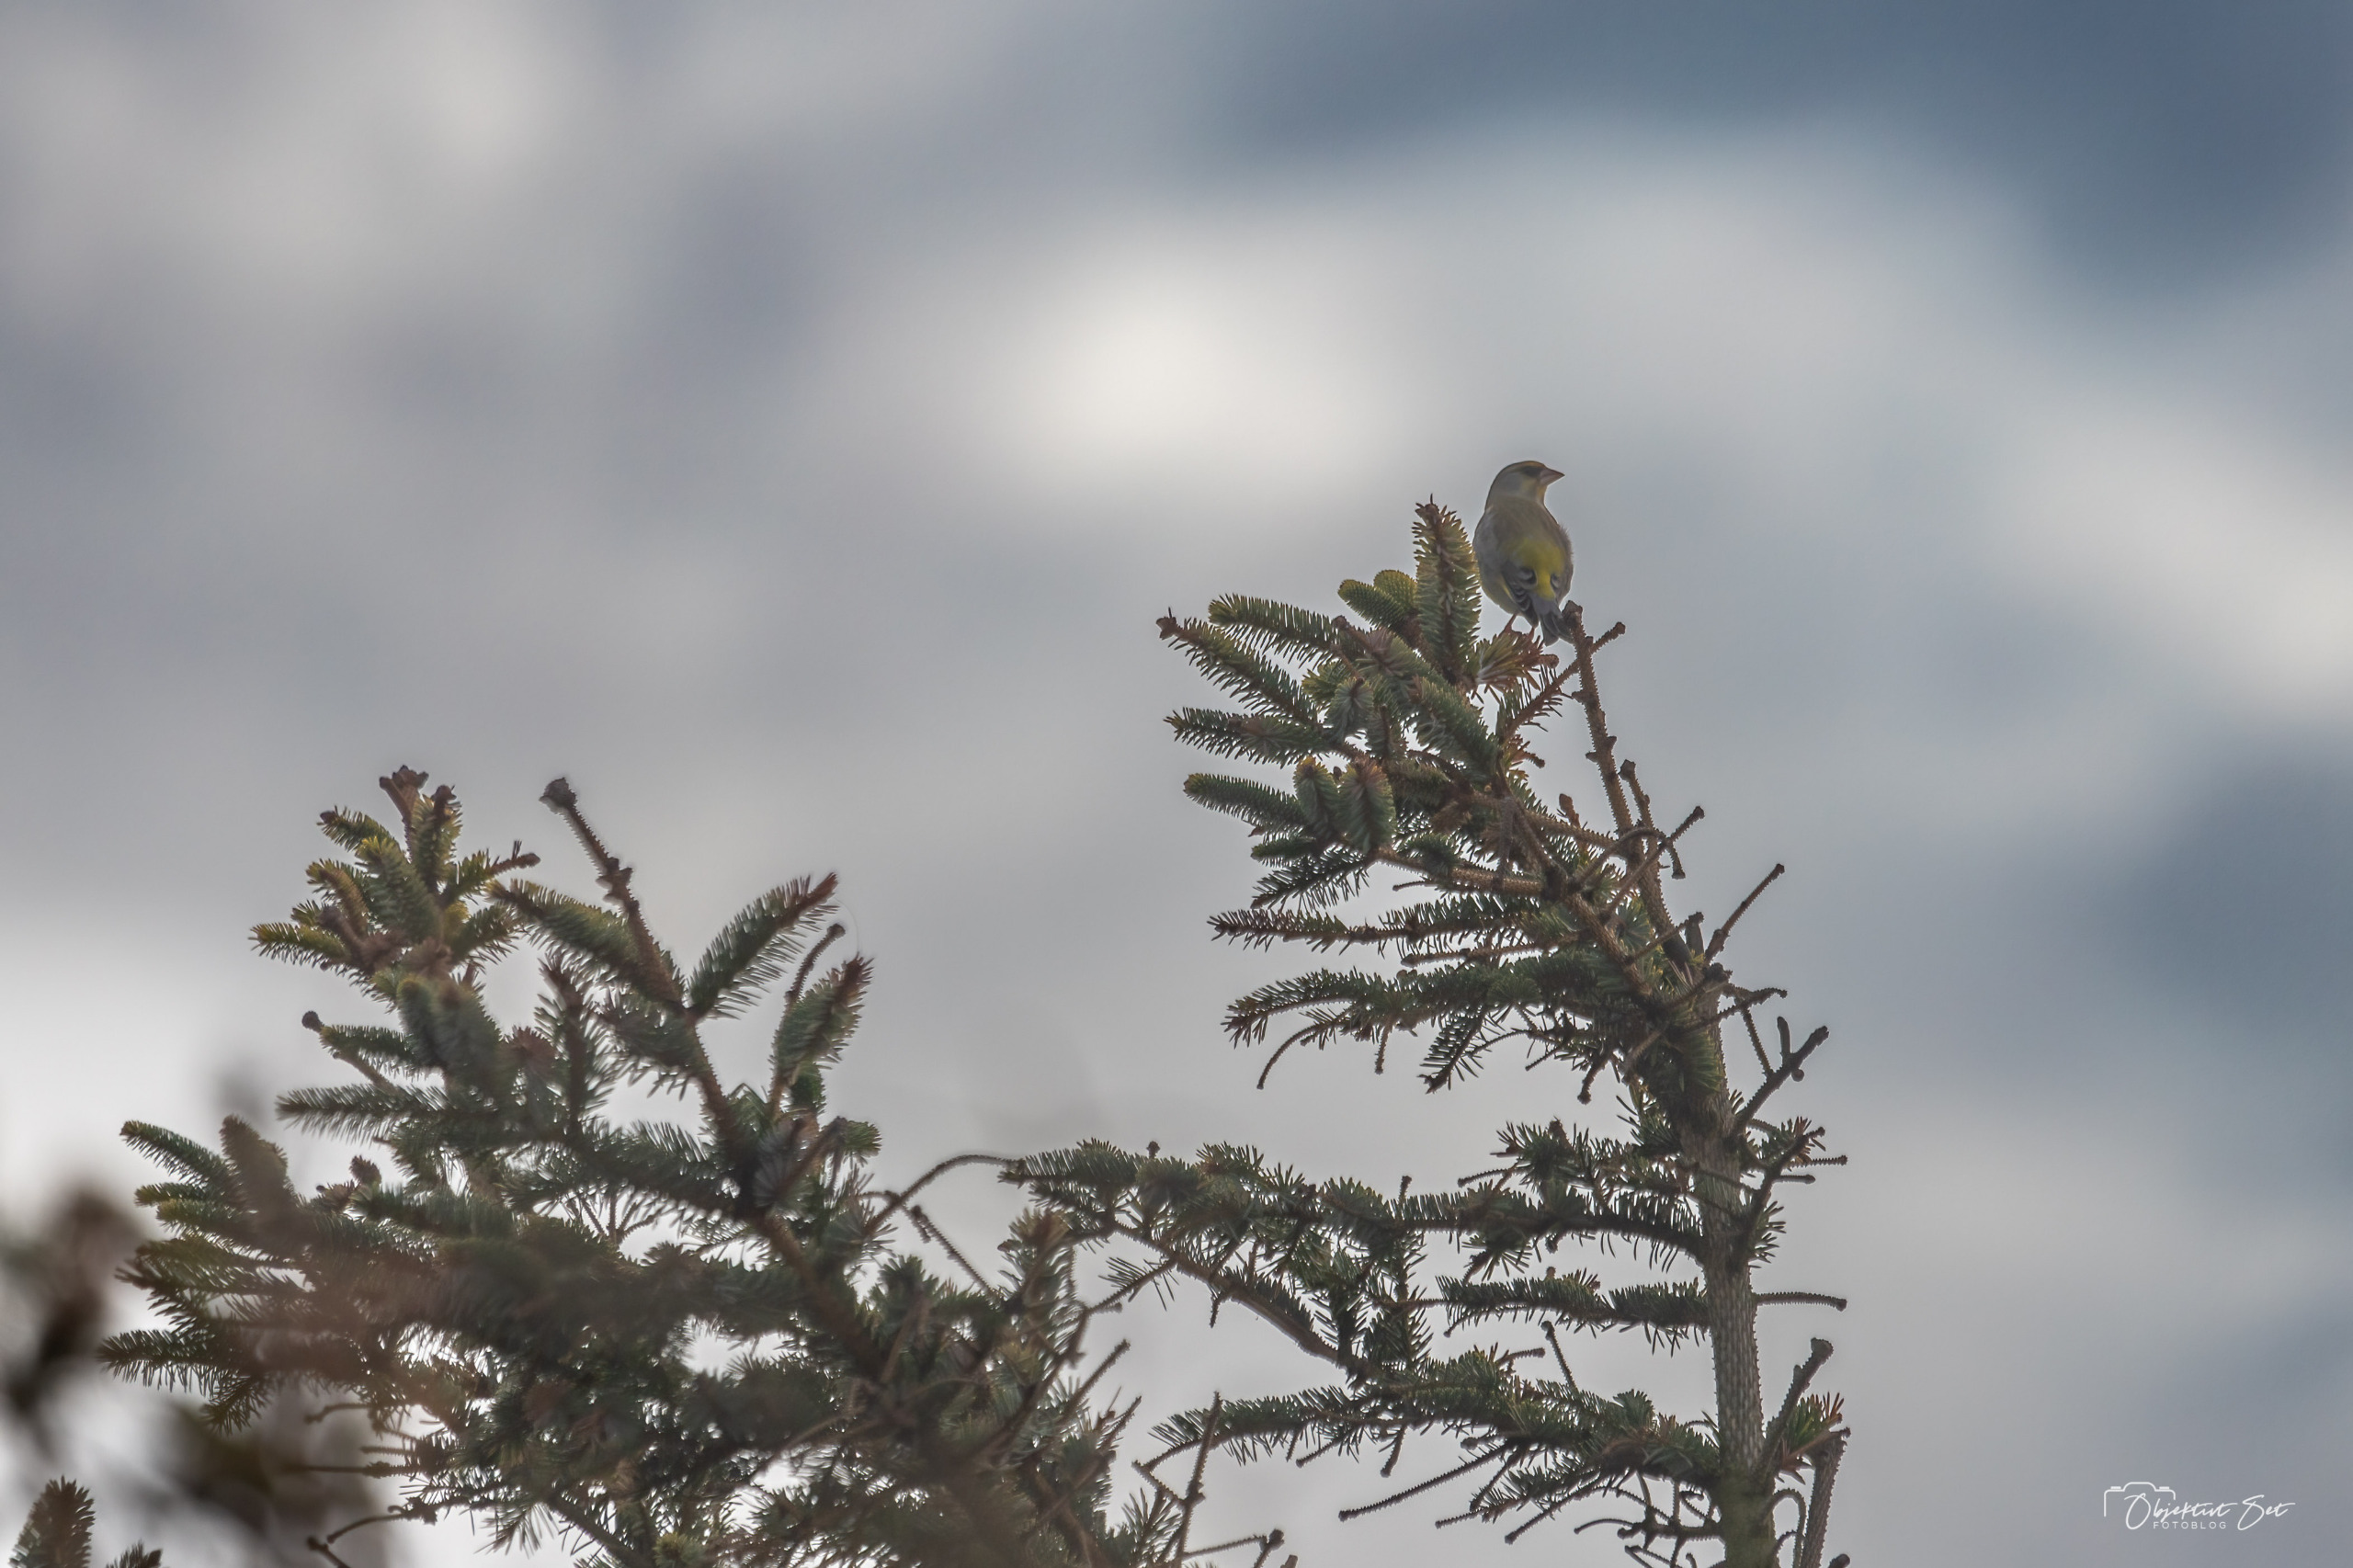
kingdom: Plantae
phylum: Tracheophyta
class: Liliopsida
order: Poales
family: Poaceae
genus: Chloris
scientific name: Chloris chloris
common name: Grønirisk
